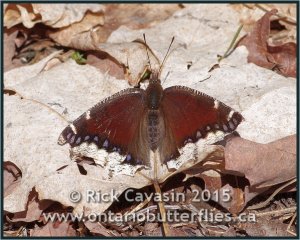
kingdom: Animalia
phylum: Arthropoda
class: Insecta
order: Lepidoptera
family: Nymphalidae
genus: Nymphalis
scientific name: Nymphalis antiopa
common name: Mourning Cloak
